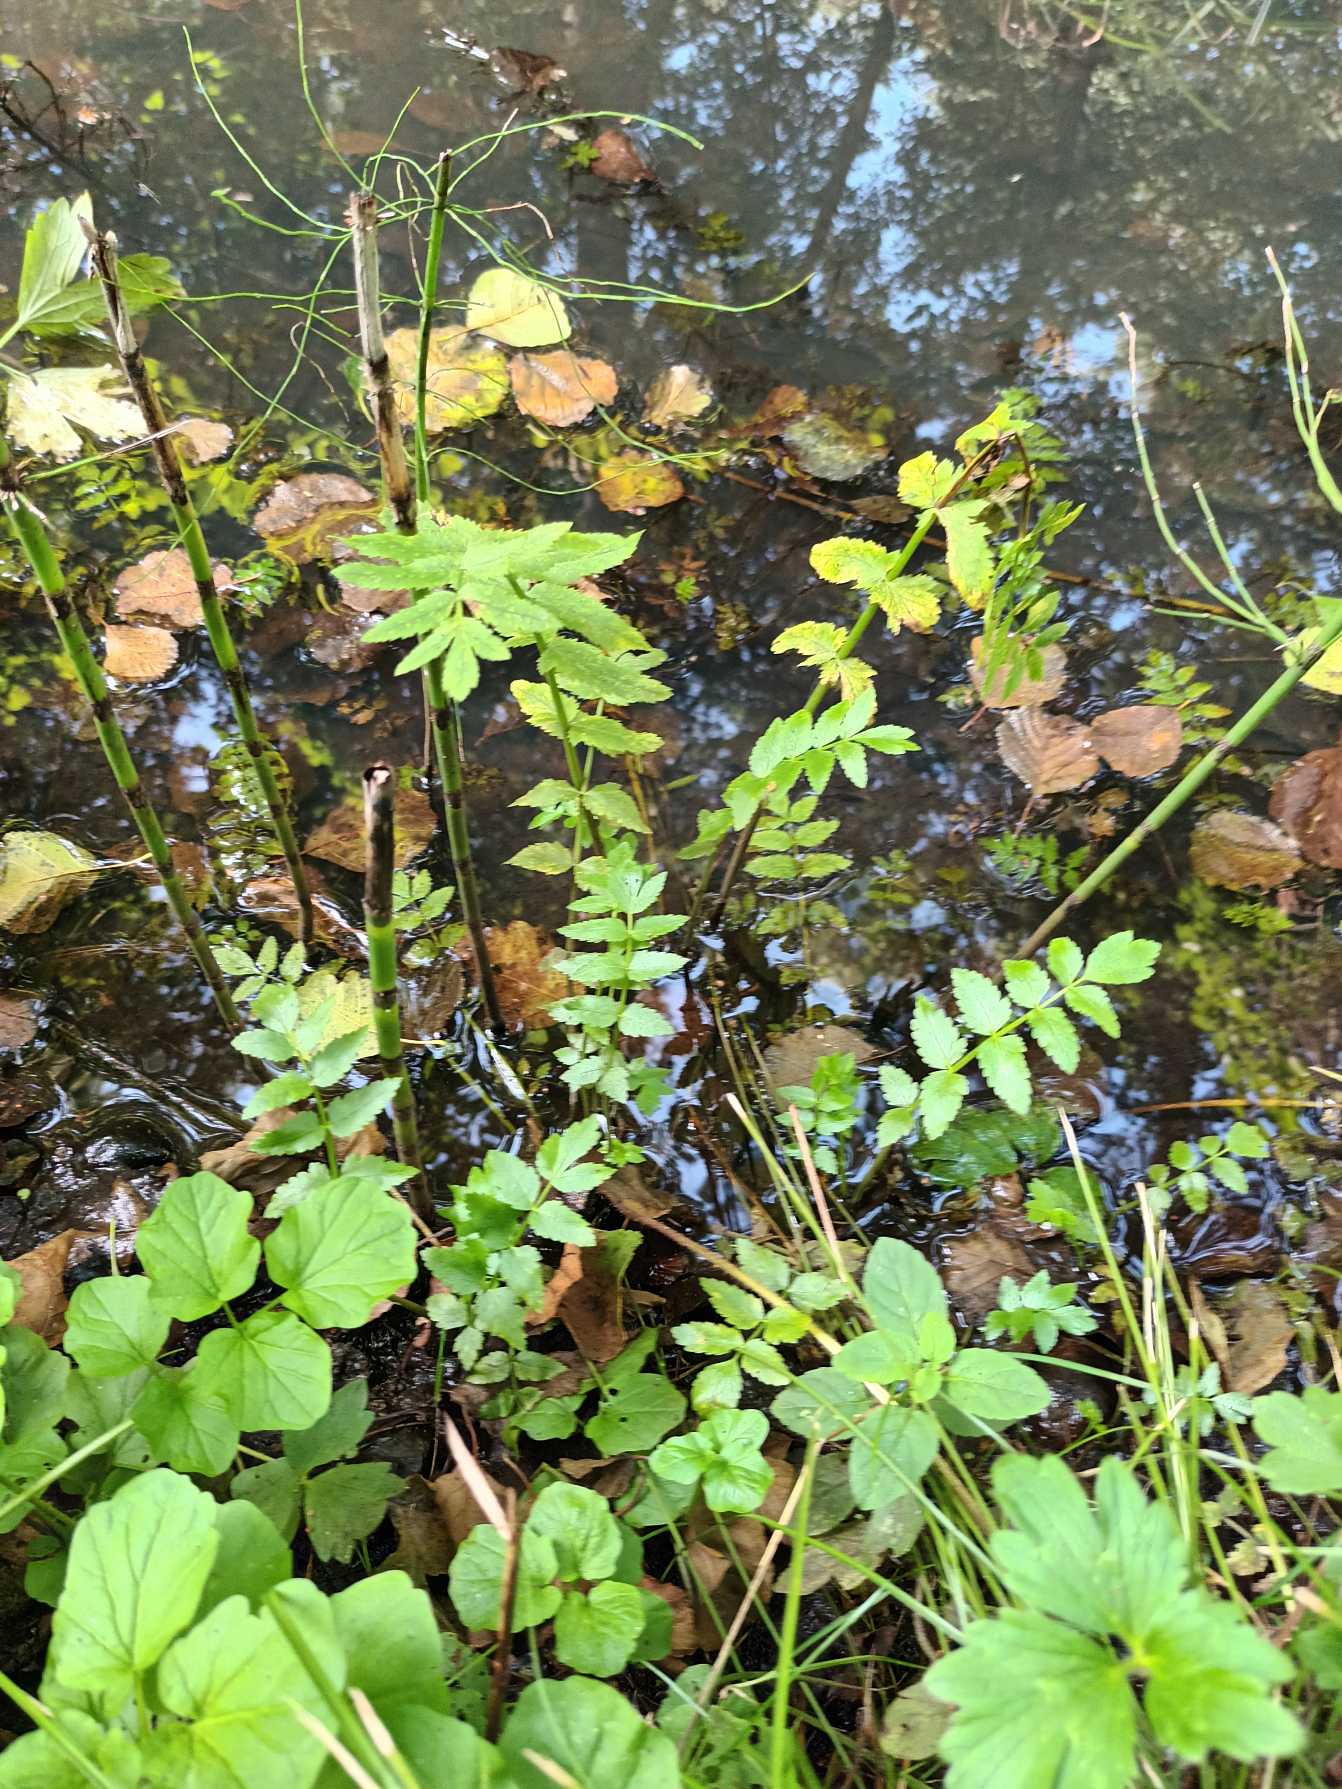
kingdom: Plantae
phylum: Tracheophyta
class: Magnoliopsida
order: Apiales
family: Apiaceae
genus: Berula
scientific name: Berula erecta
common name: Sideskærm
